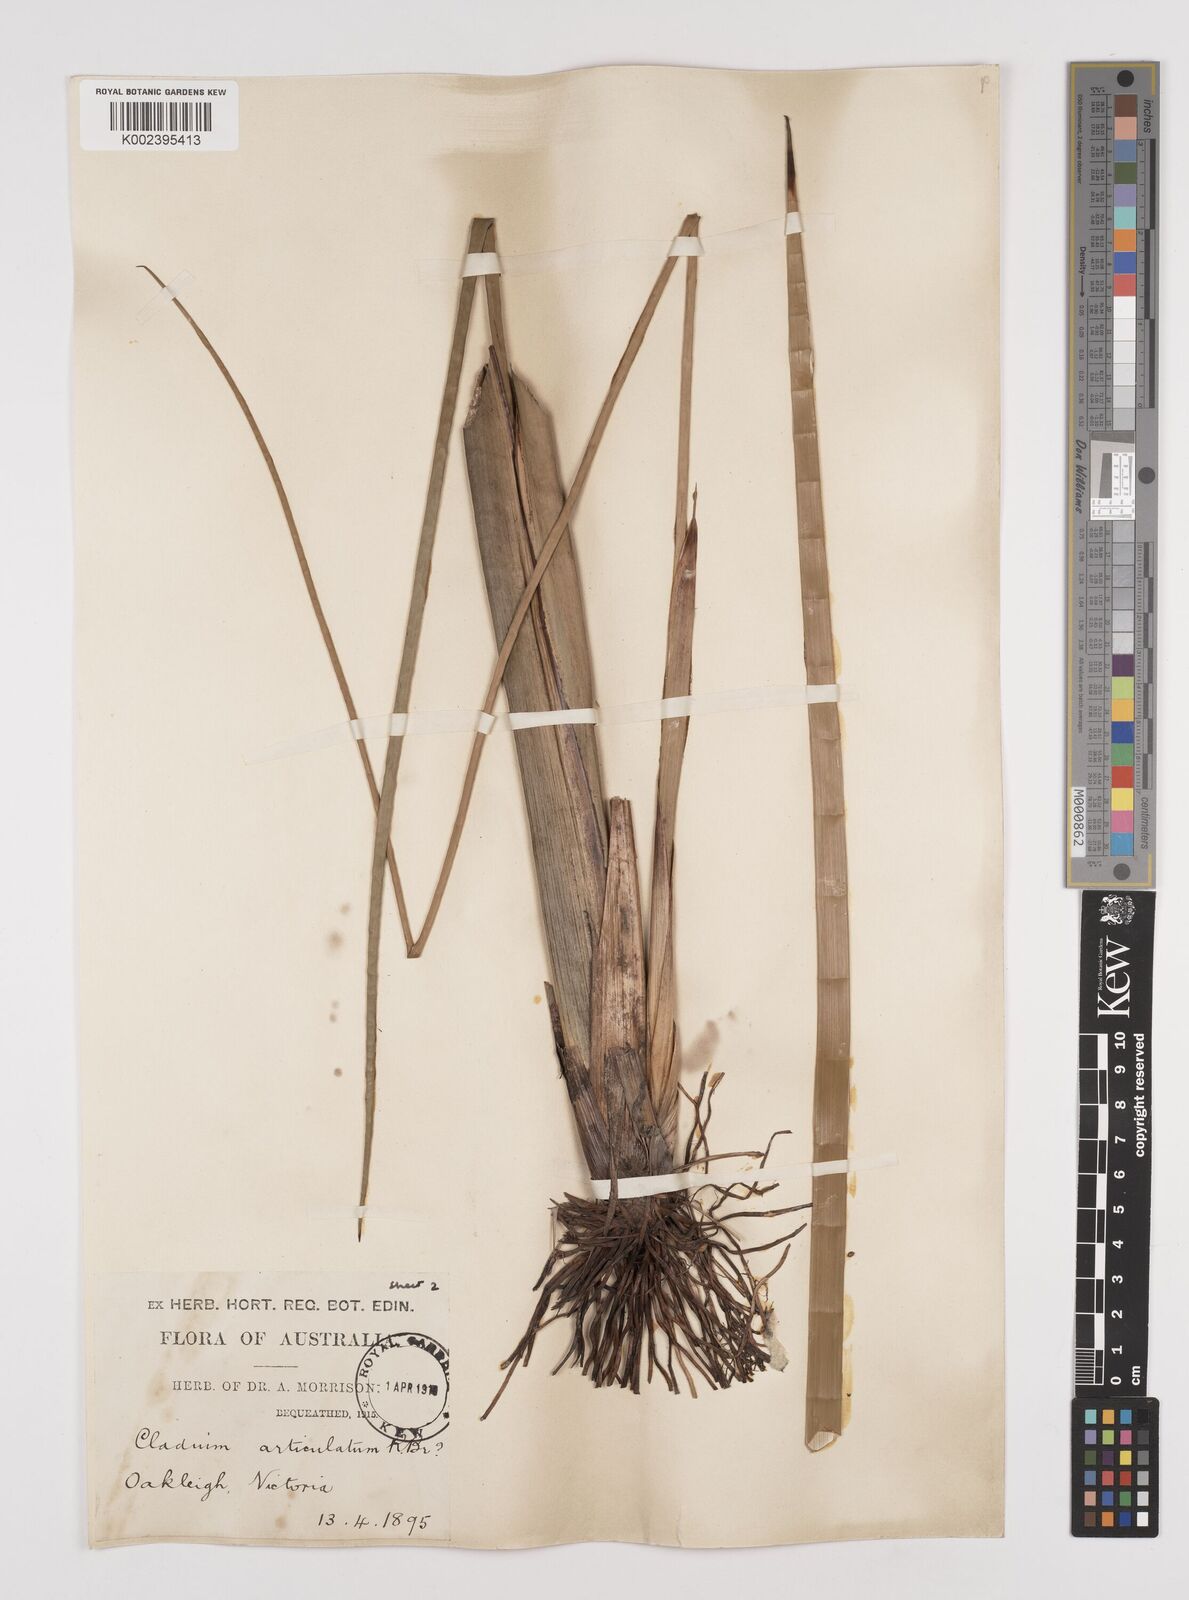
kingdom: Plantae
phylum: Tracheophyta
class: Liliopsida
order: Poales
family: Cyperaceae
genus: Machaerina
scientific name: Machaerina articulata
